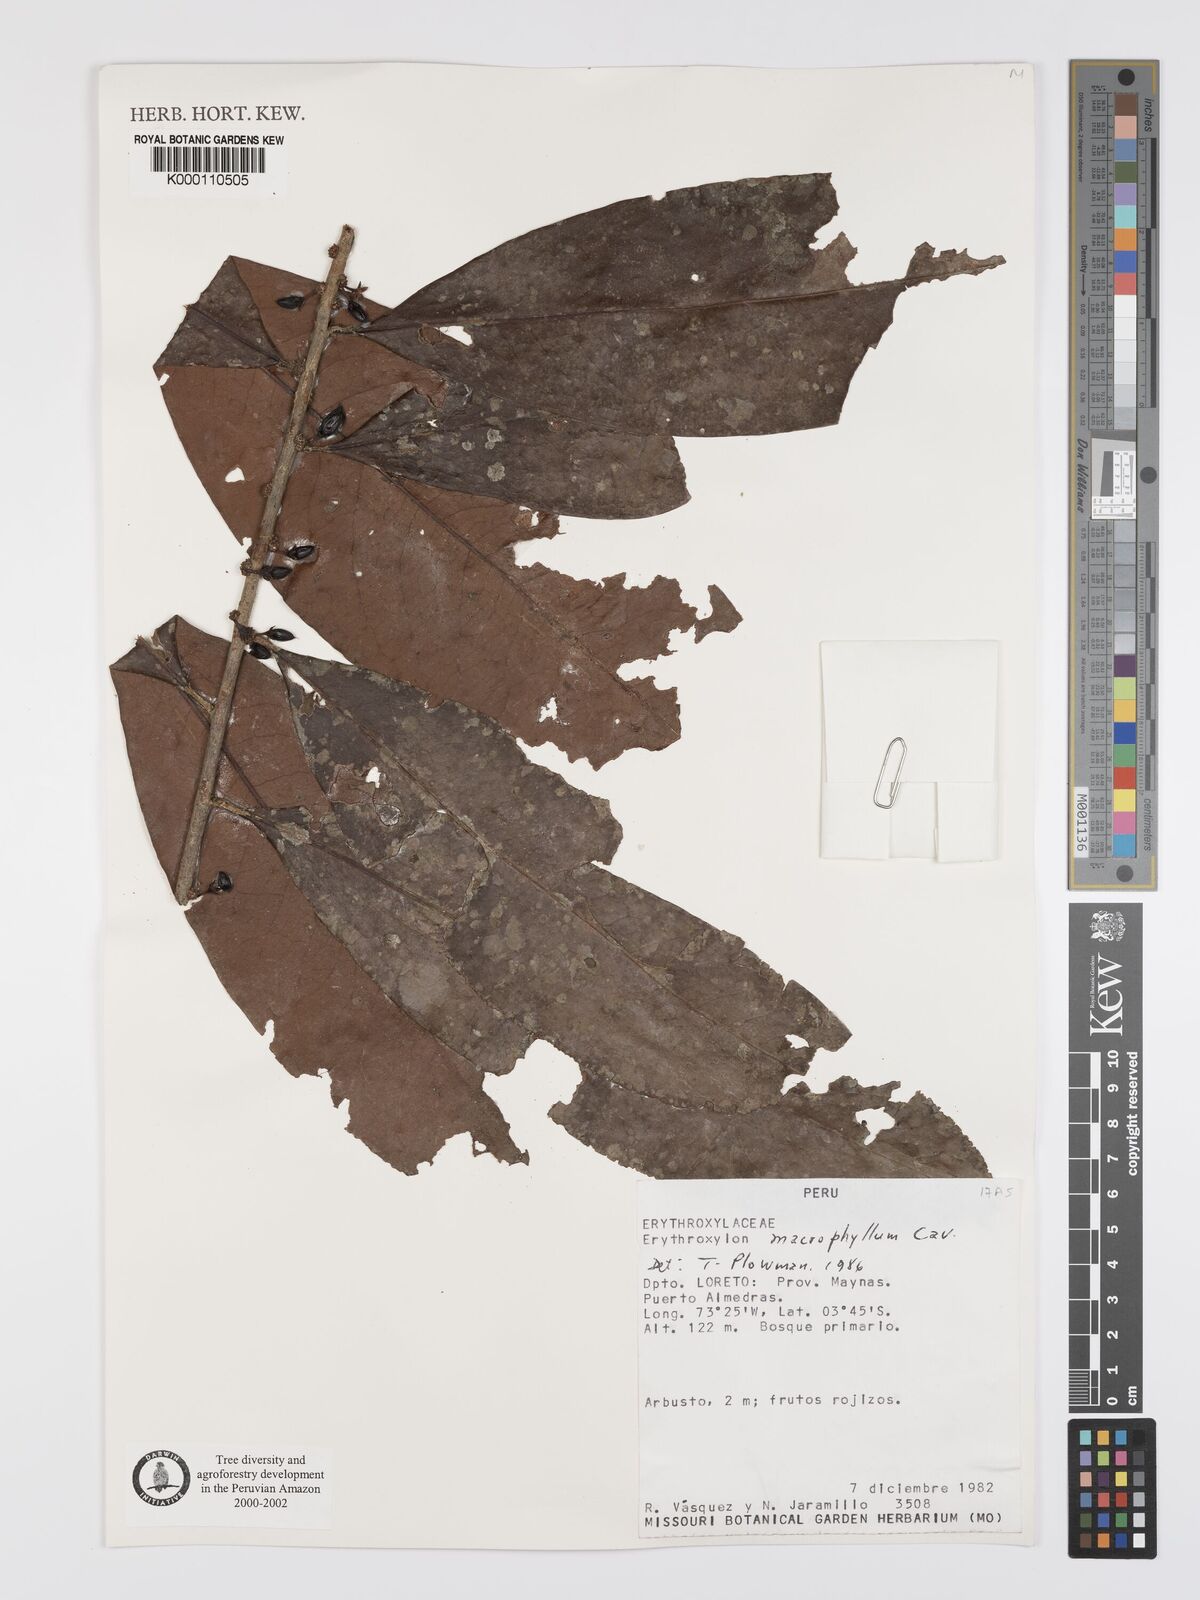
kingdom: Plantae
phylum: Tracheophyta
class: Magnoliopsida
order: Malpighiales
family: Erythroxylaceae
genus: Erythroxylum
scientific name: Erythroxylum
